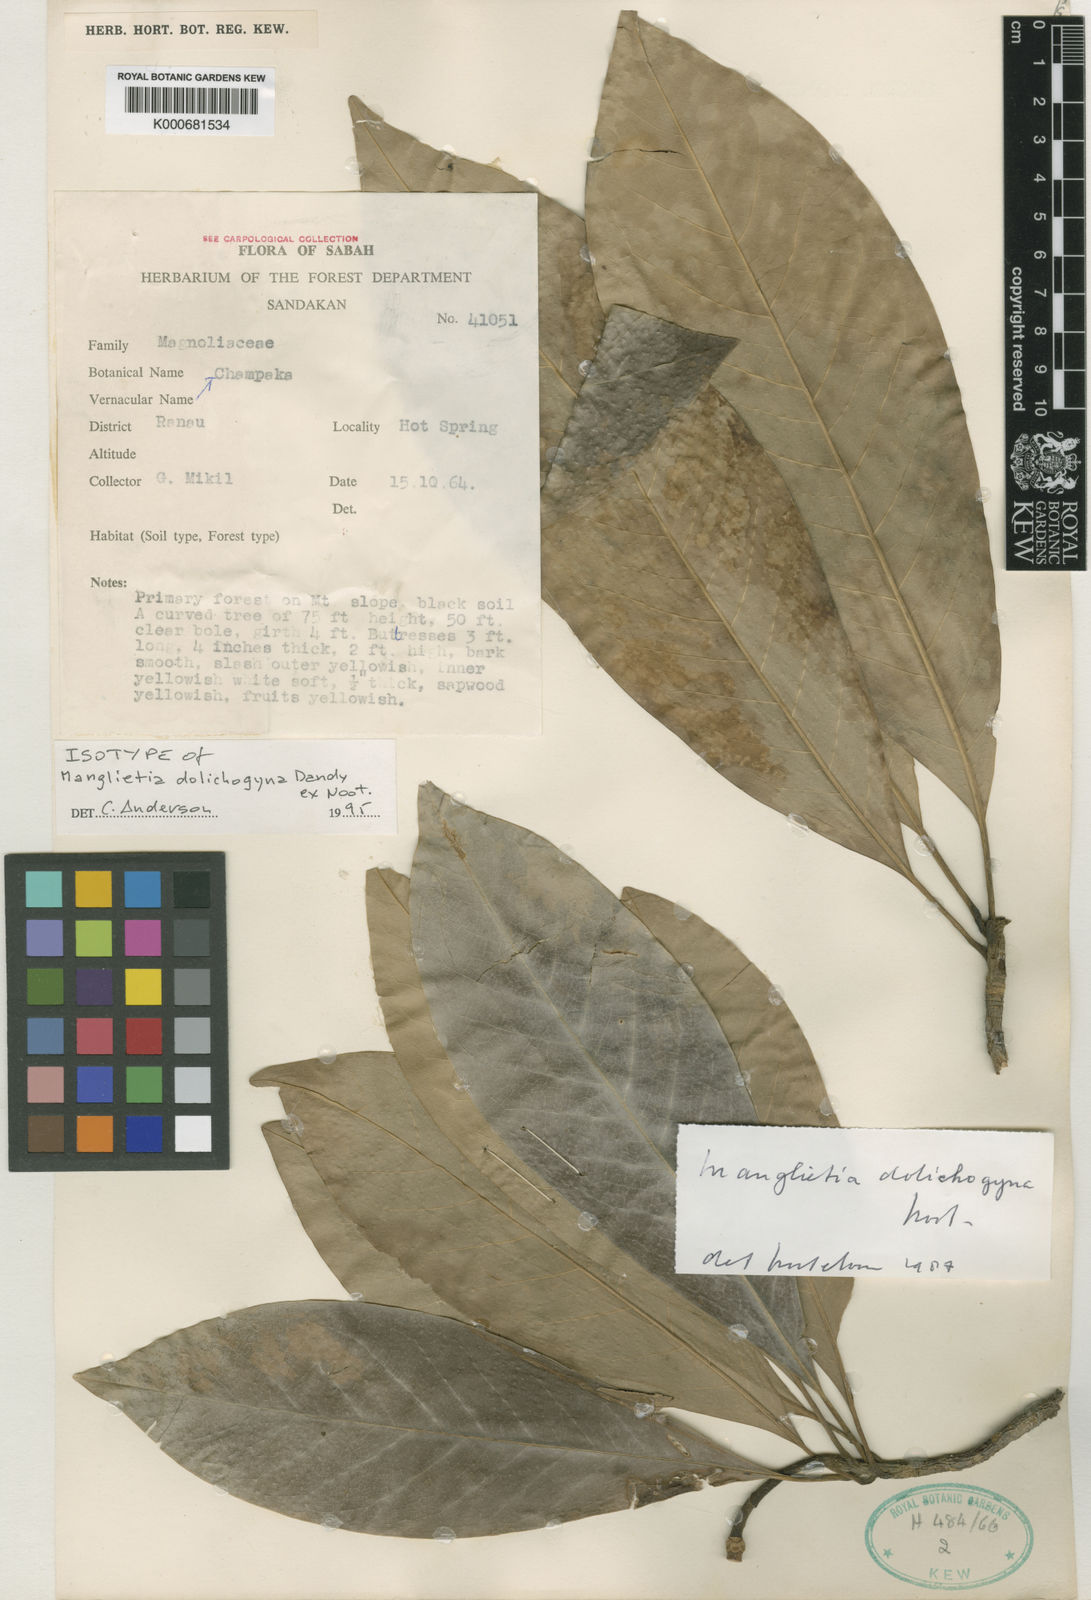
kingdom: Plantae
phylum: Tracheophyta
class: Magnoliopsida
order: Magnoliales
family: Magnoliaceae
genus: Magnolia
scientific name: Magnolia utilis
